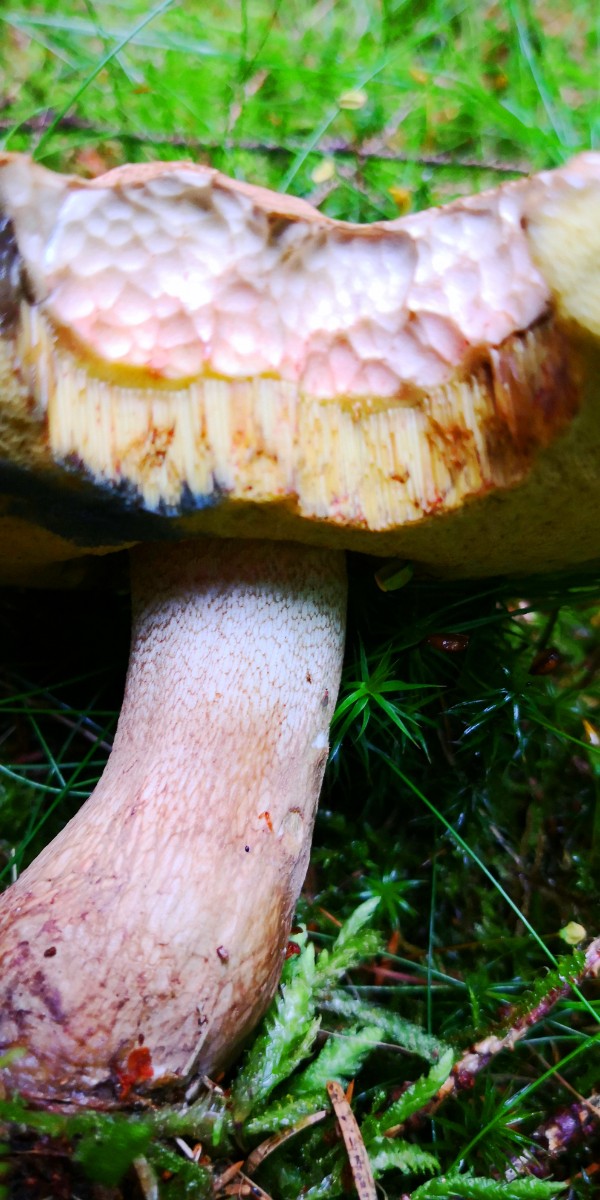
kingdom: Fungi
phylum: Basidiomycota
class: Agaricomycetes
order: Boletales
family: Boletaceae
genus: Caloboletus
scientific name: Caloboletus calopus
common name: skønfodet rørhat
